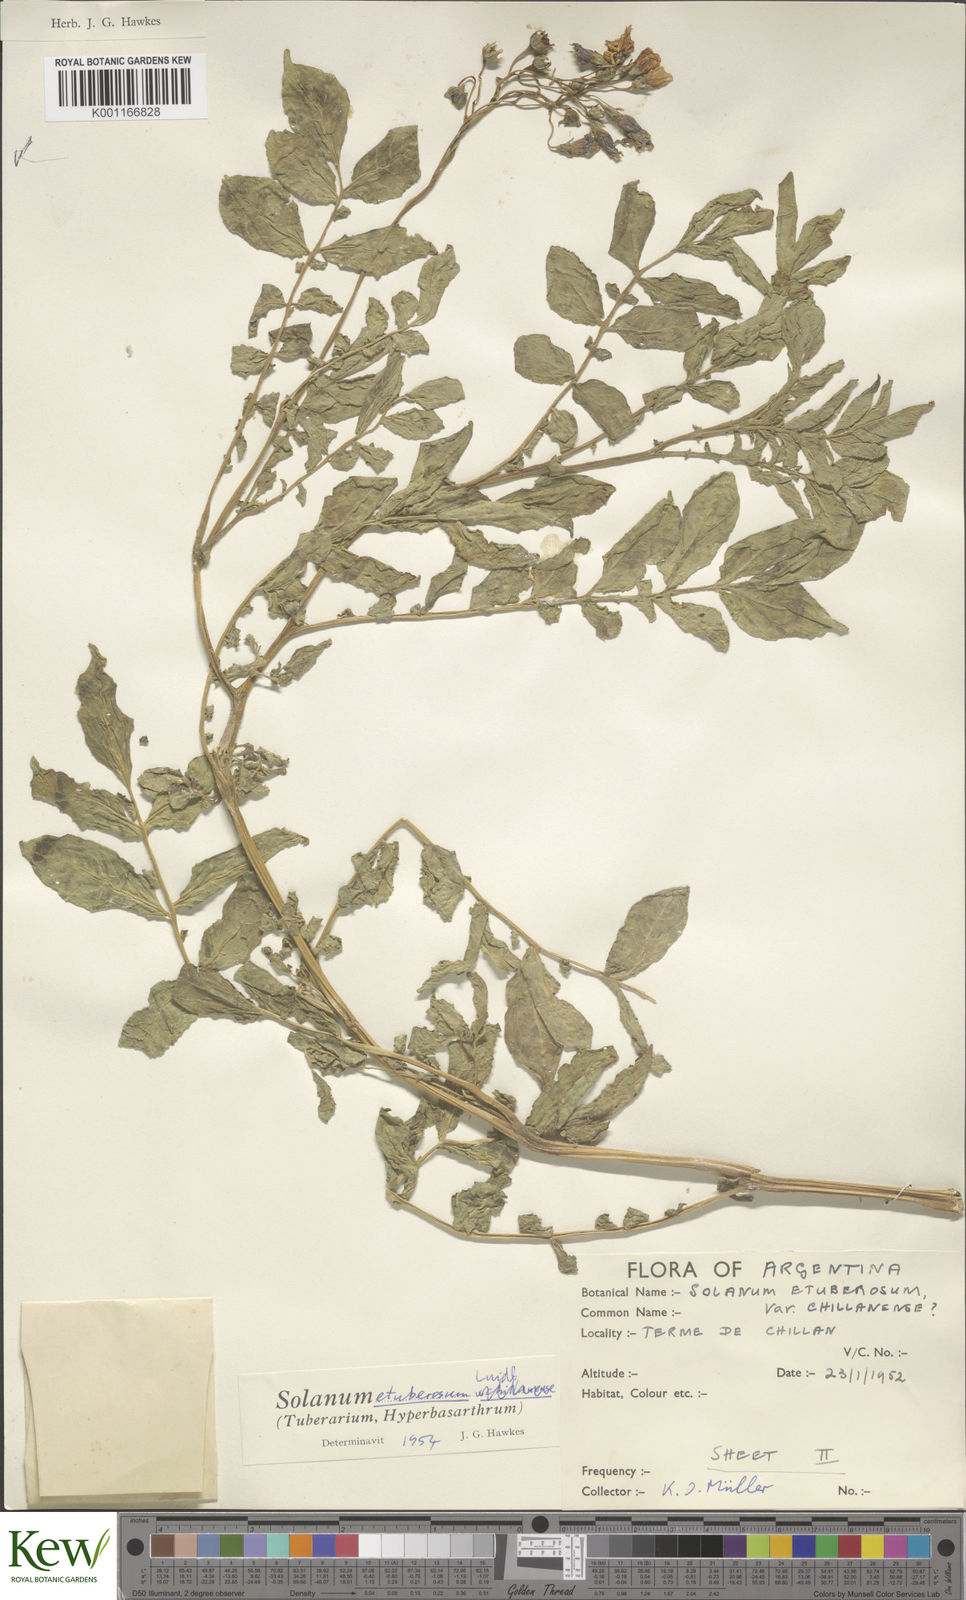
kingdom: Plantae
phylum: Tracheophyta
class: Magnoliopsida
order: Solanales
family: Solanaceae
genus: Solanum
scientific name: Solanum etuberosum
